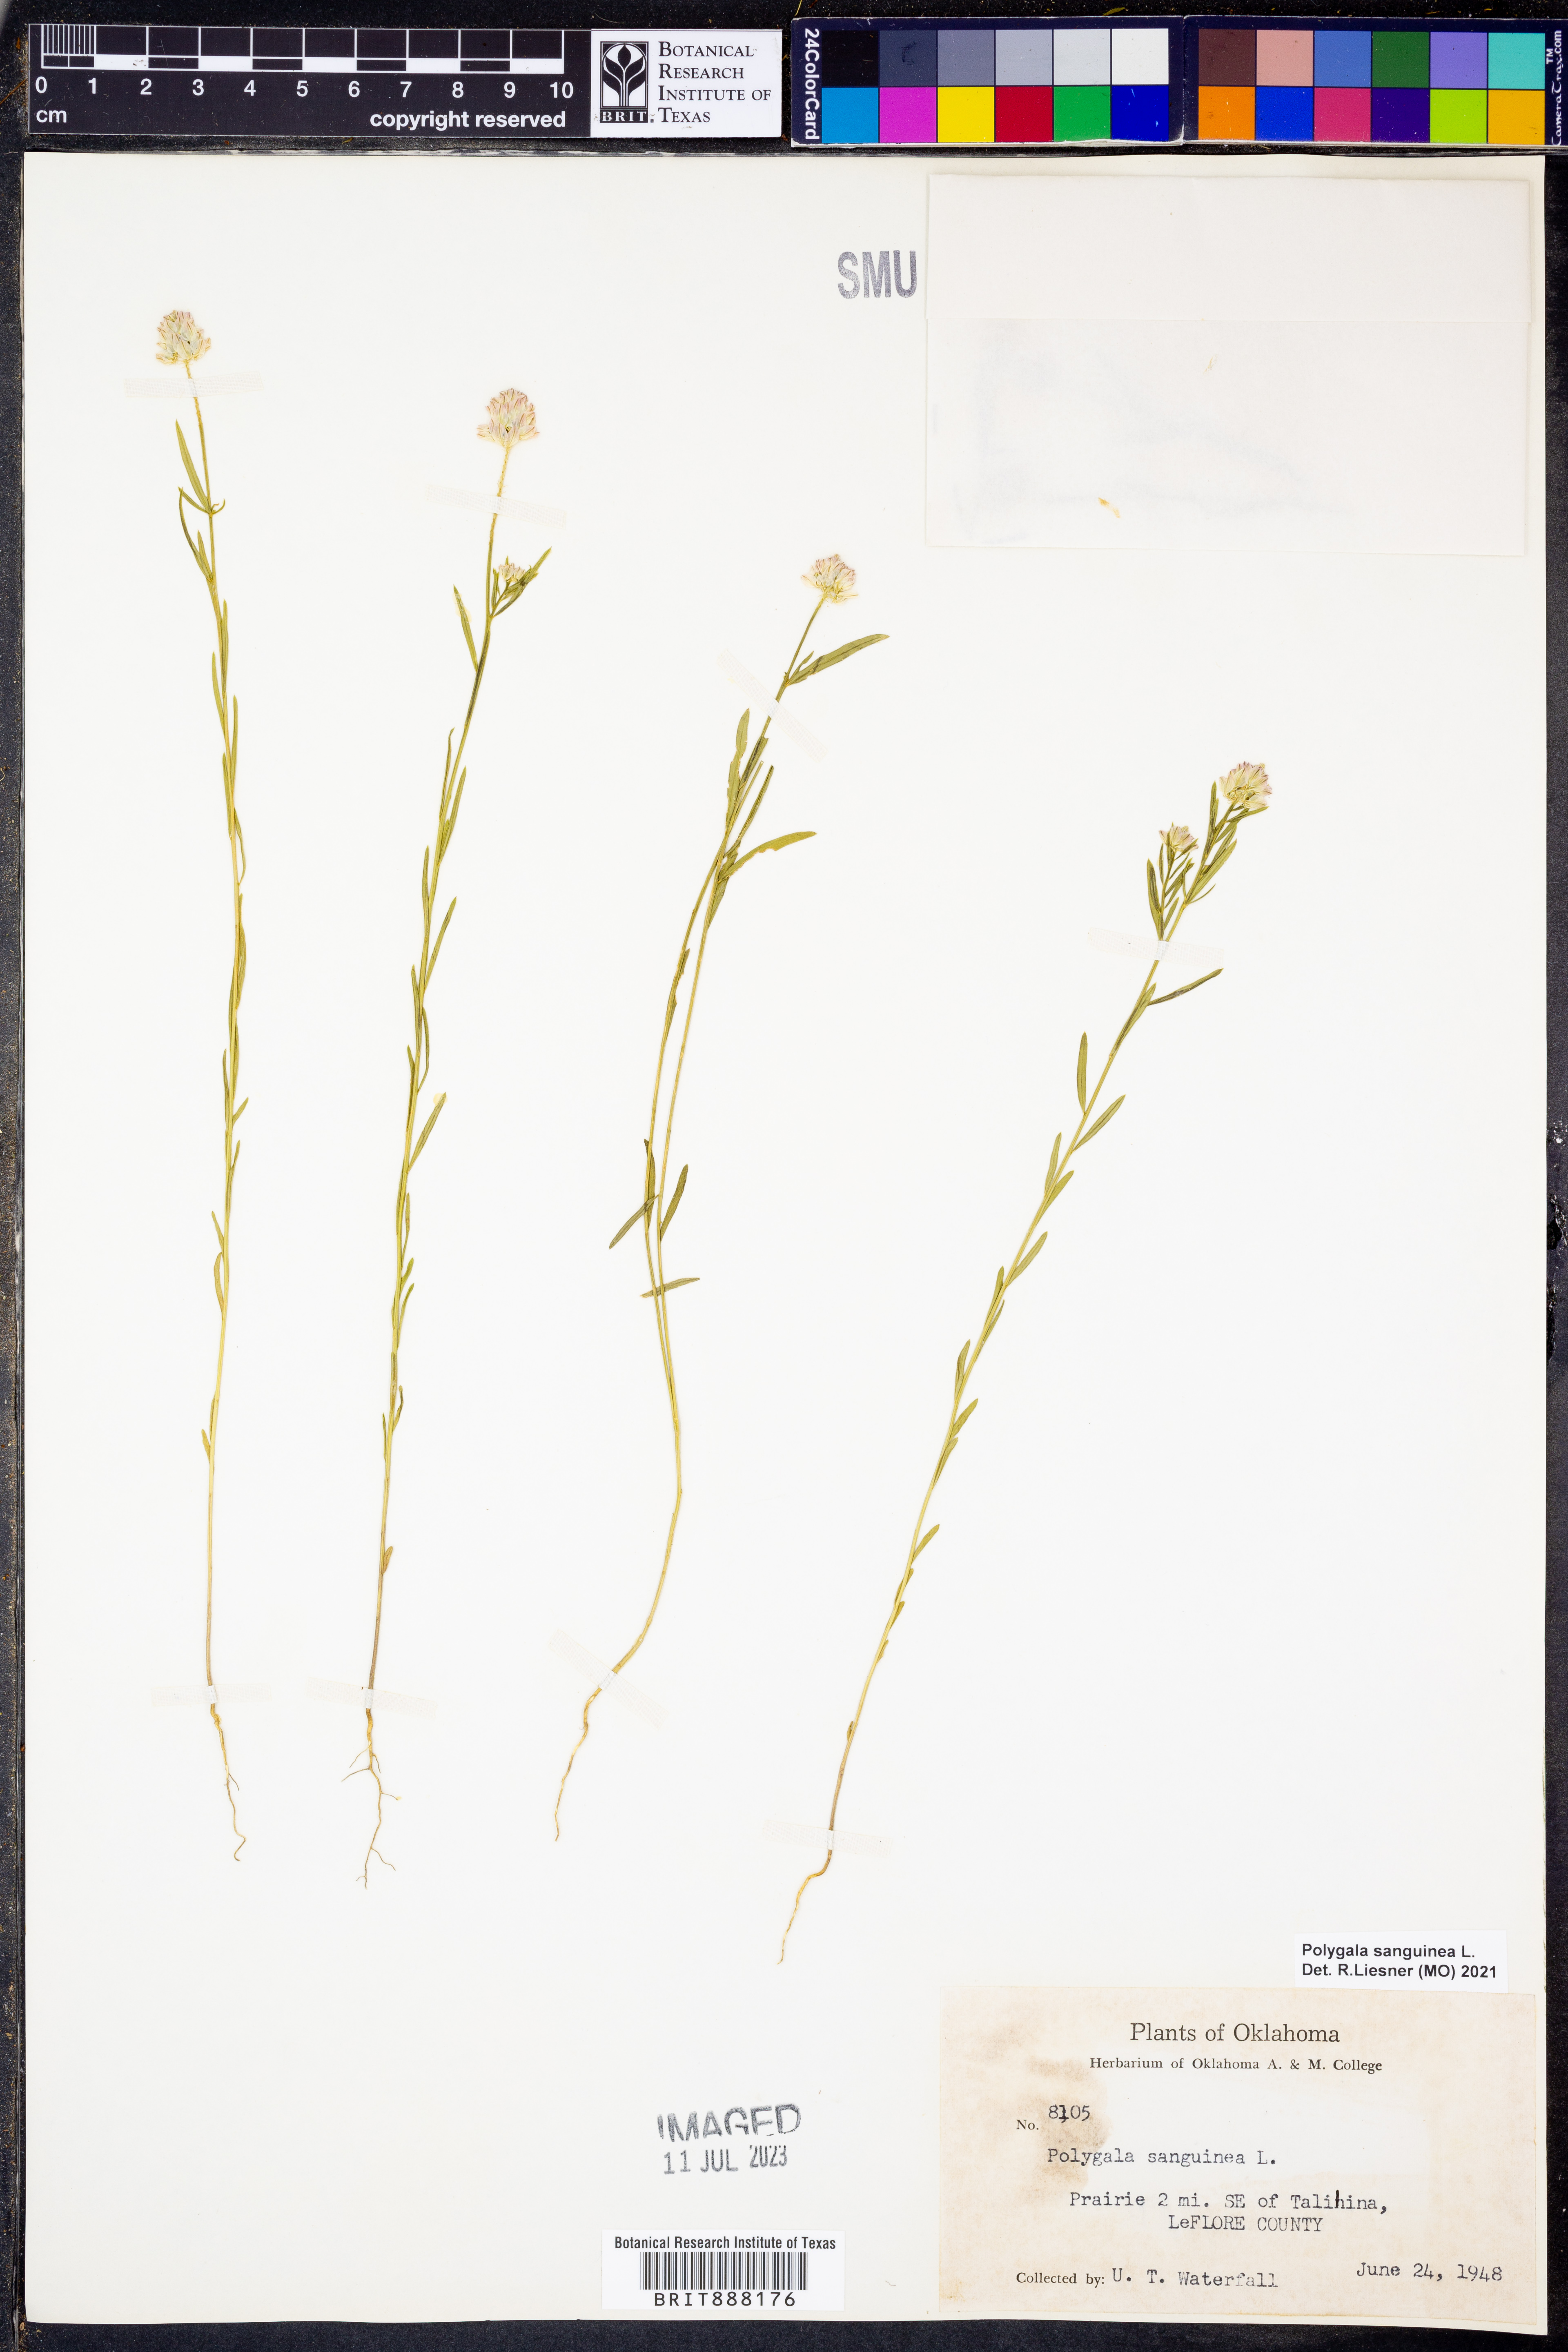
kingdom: Plantae
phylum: Tracheophyta
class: Magnoliopsida
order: Fabales
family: Polygalaceae
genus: Polygala
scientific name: Polygala sanguinea
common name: Blood milkwort
